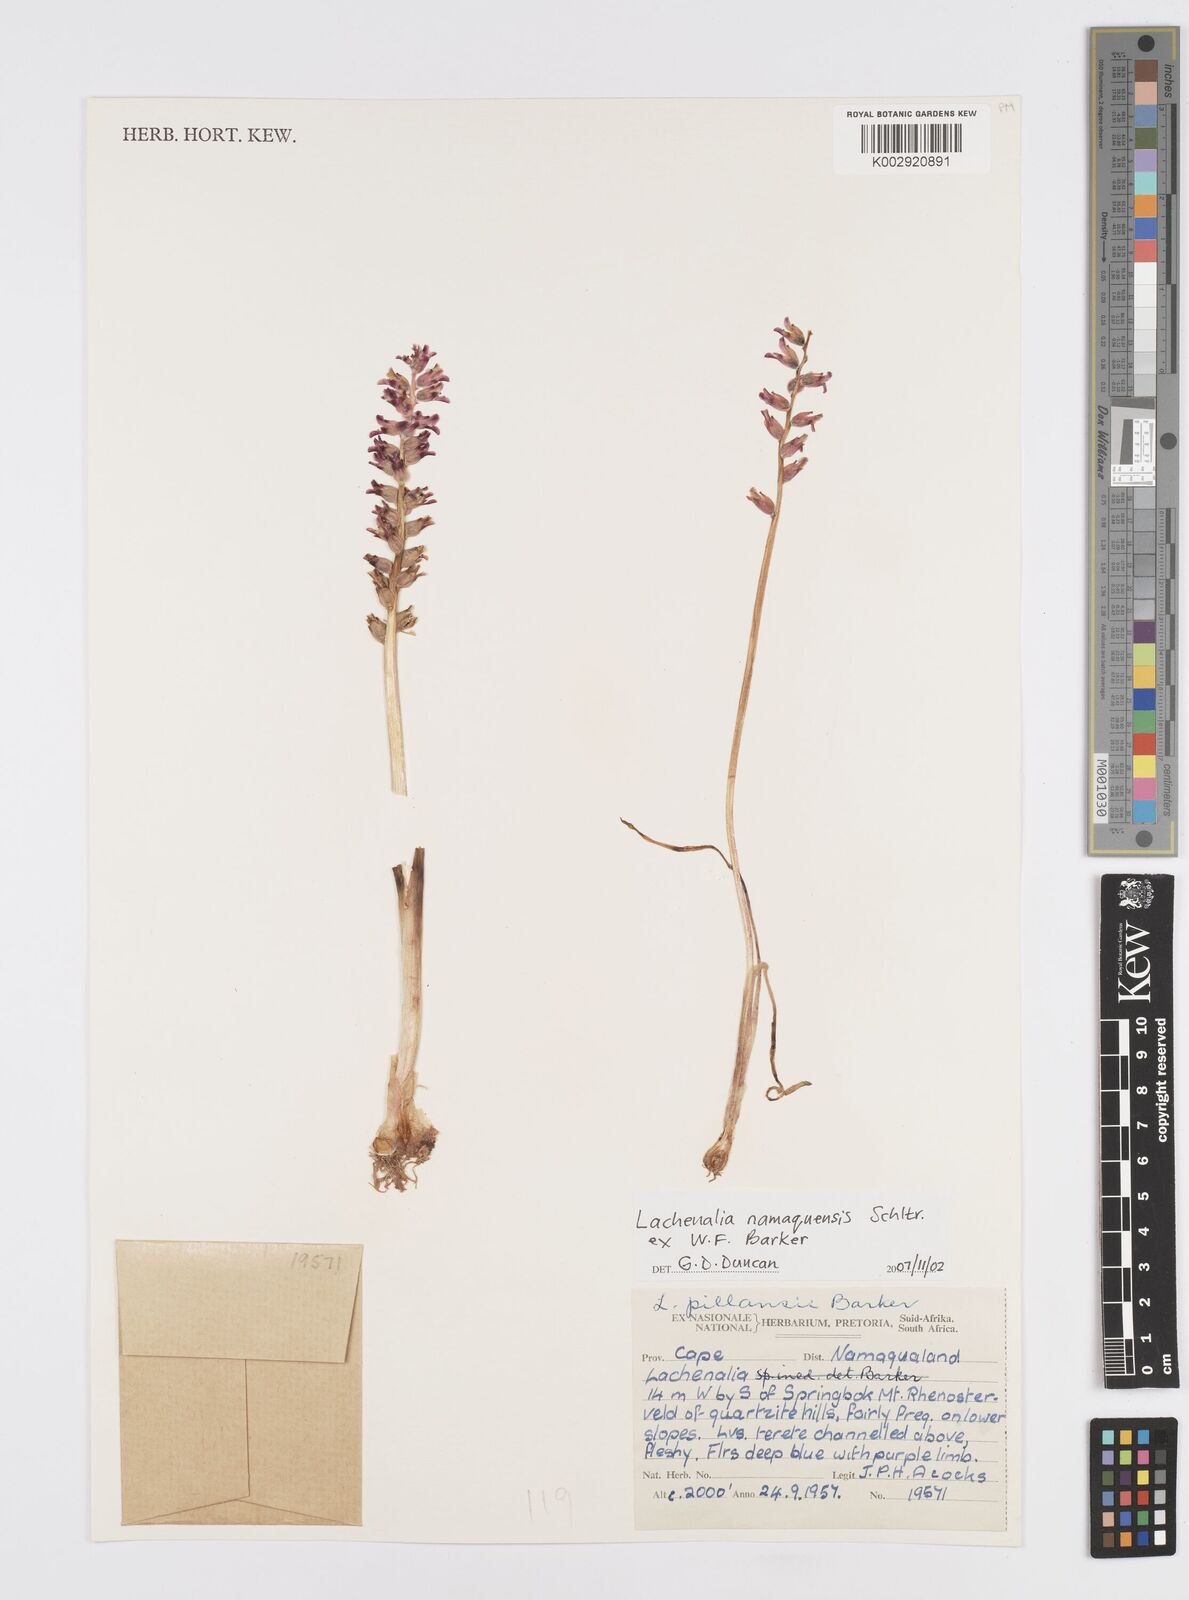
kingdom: Plantae
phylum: Tracheophyta
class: Liliopsida
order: Asparagales
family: Asparagaceae
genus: Lachenalia
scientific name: Lachenalia
